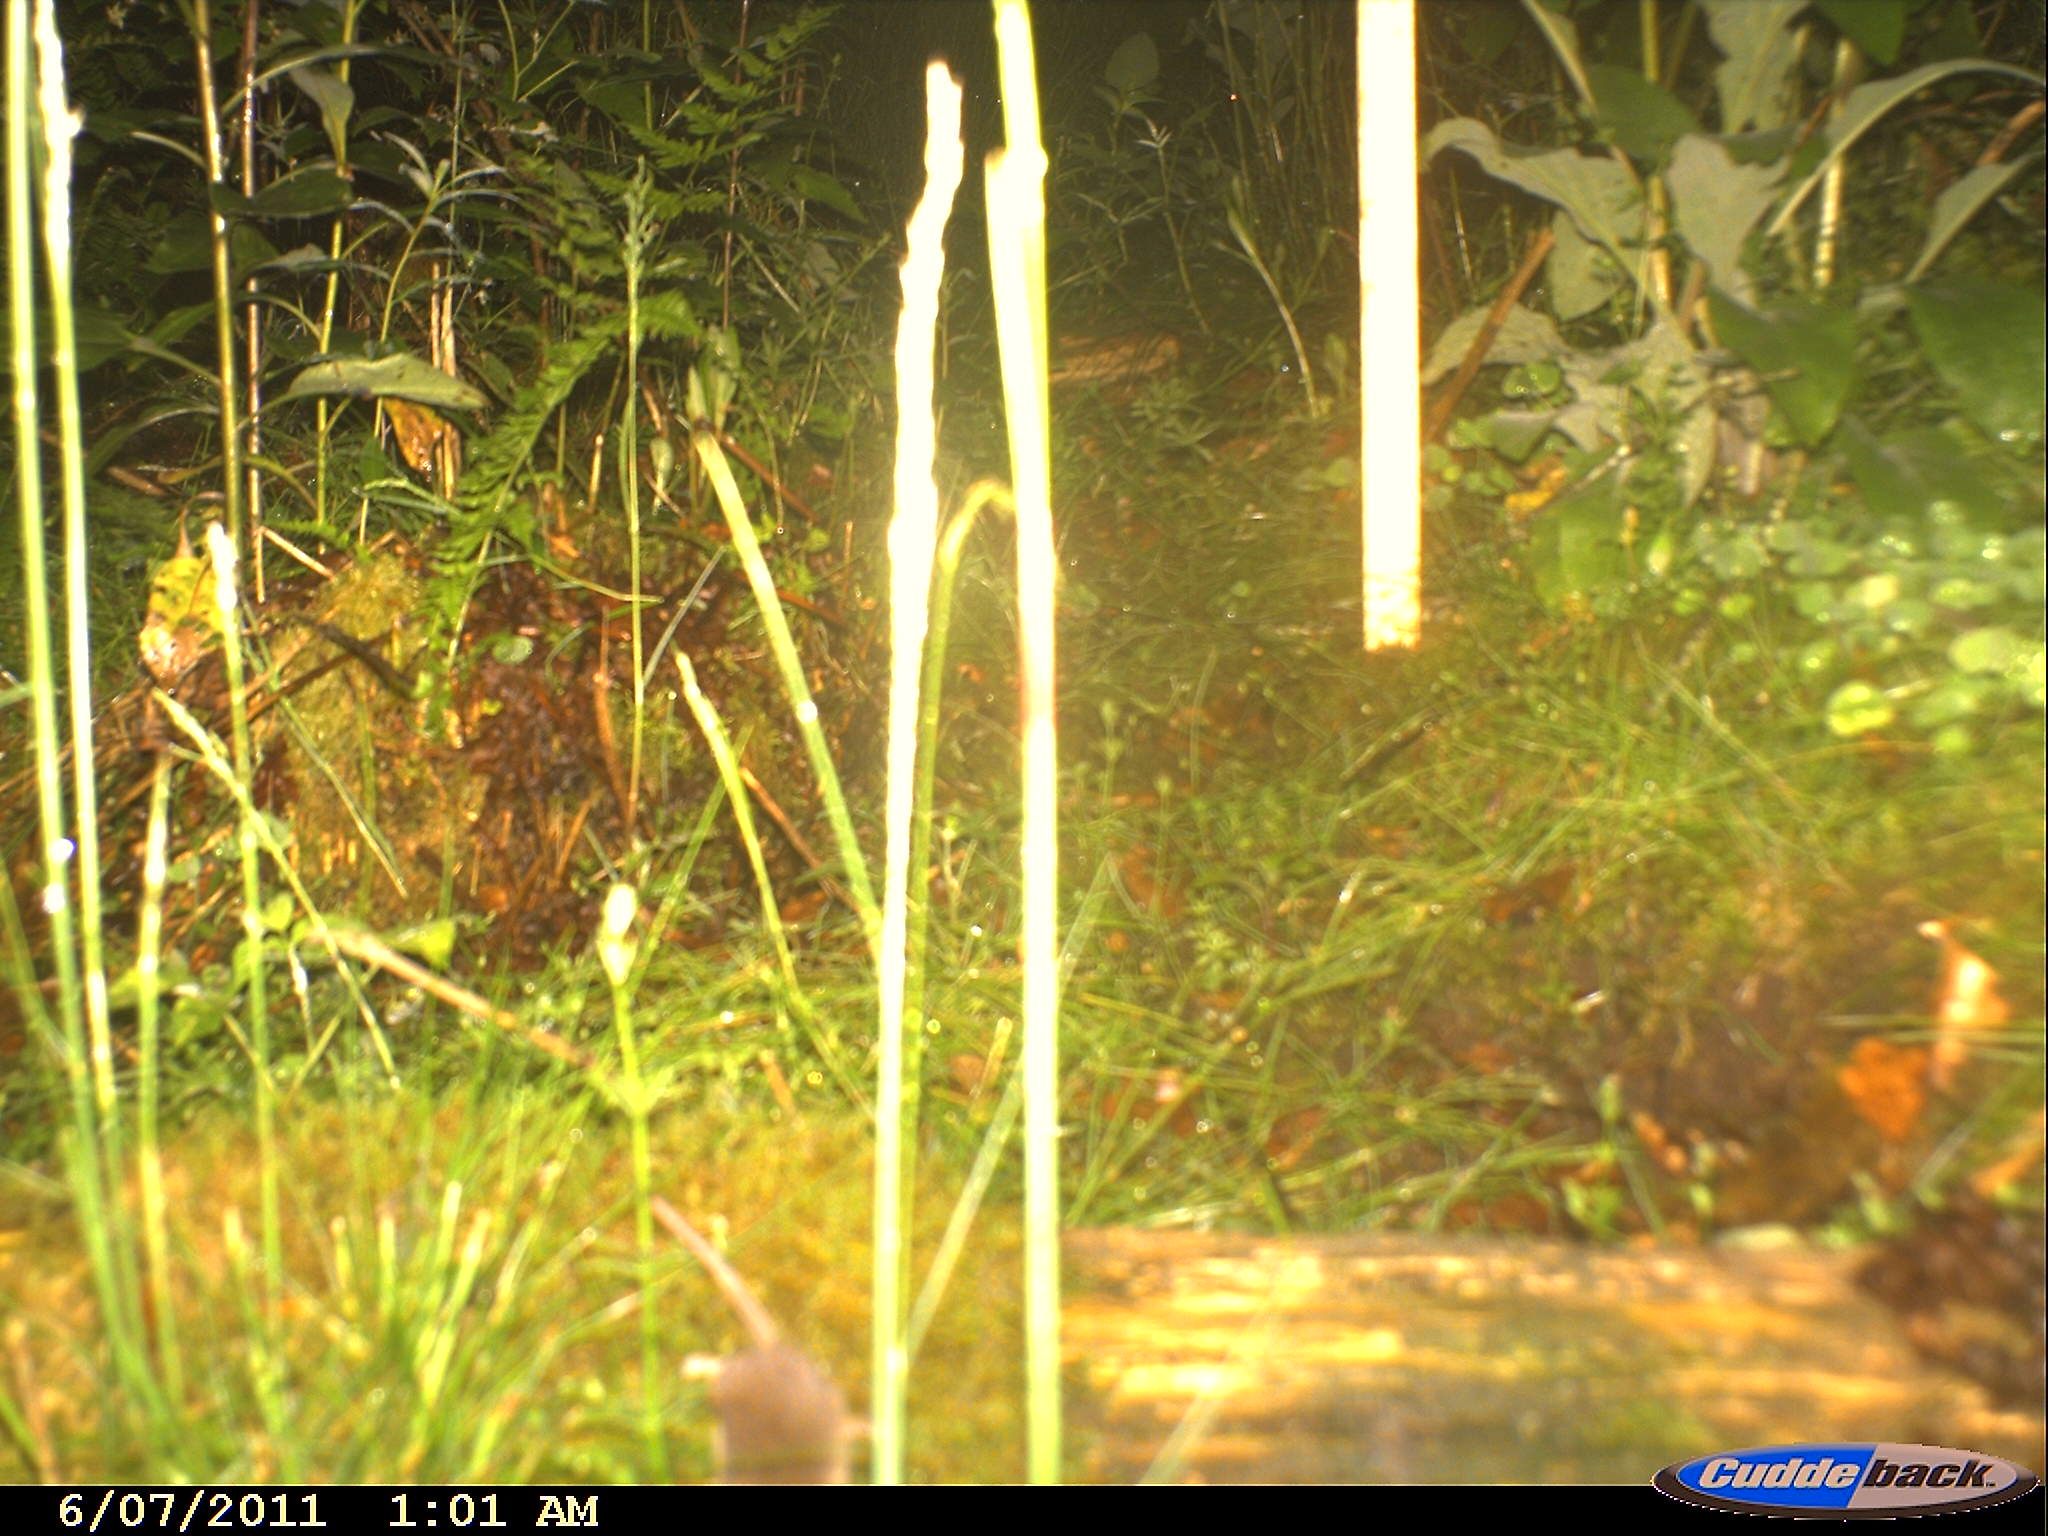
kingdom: Animalia
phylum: Chordata
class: Mammalia
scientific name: Mammalia
